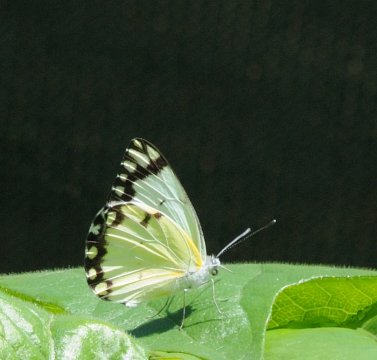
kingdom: Animalia
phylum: Arthropoda
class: Insecta
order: Lepidoptera
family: Pieridae
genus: Belenois
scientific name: Belenois creona
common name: African Caper
